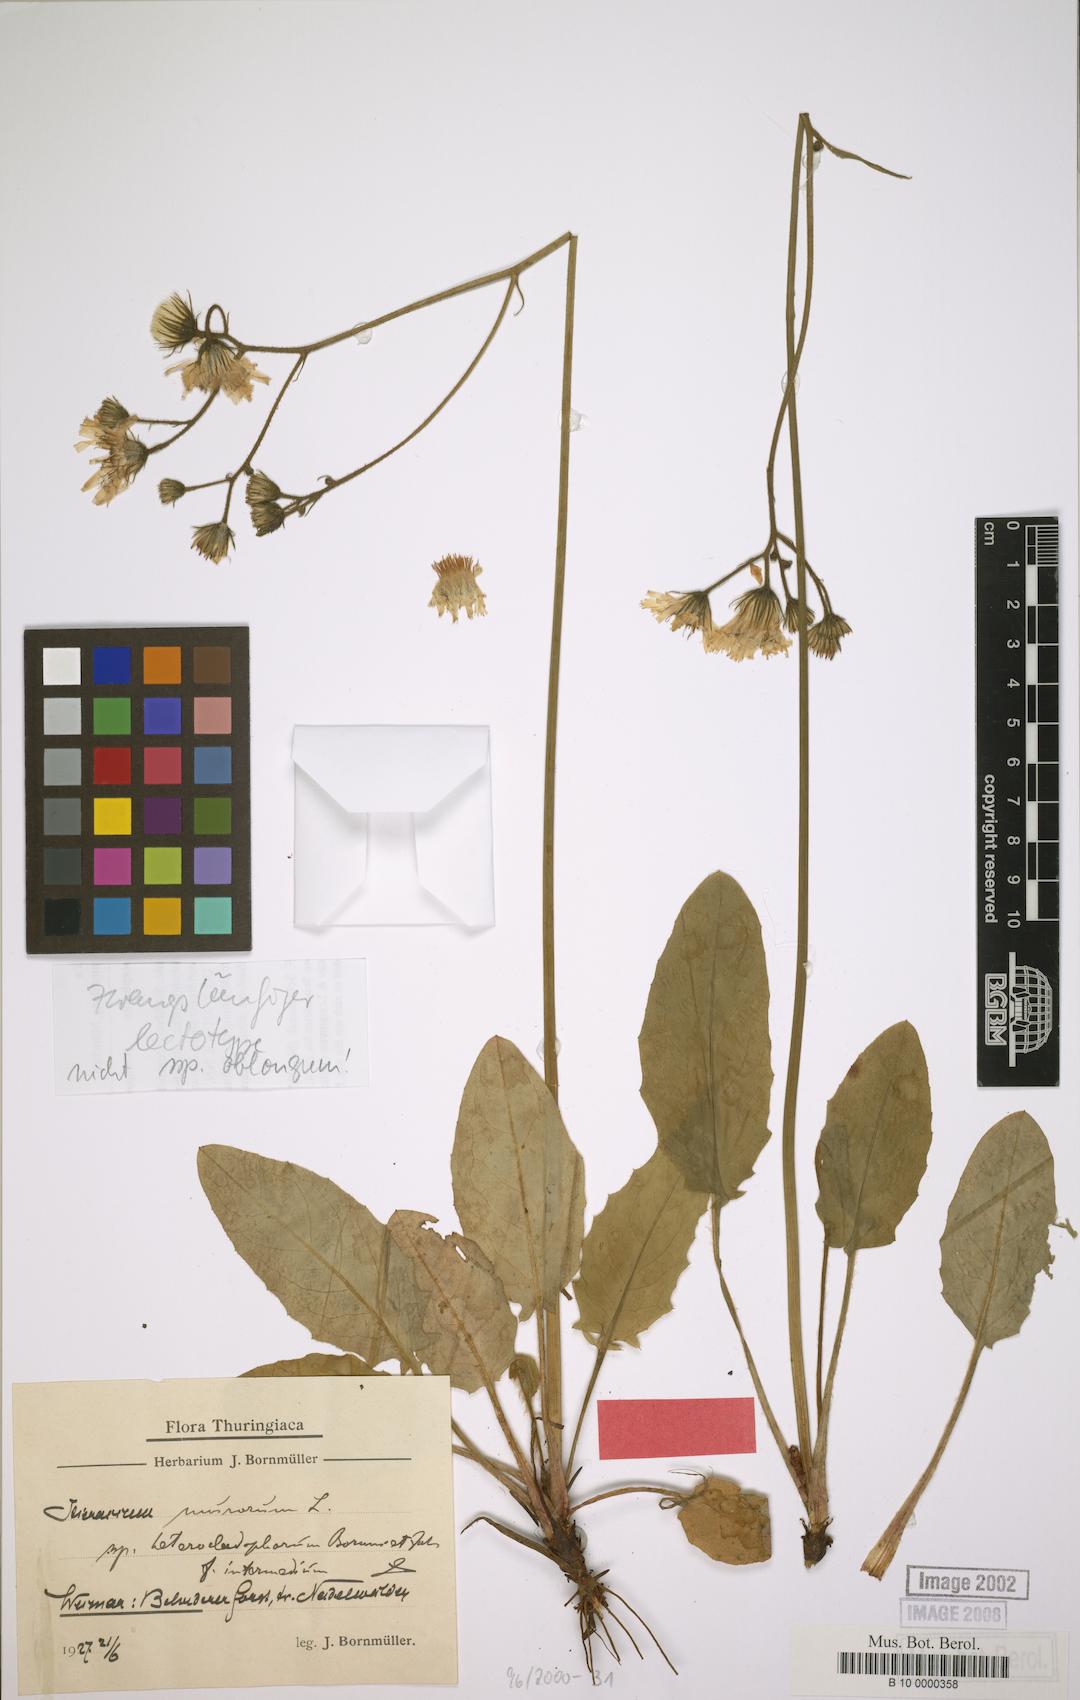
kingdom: Plantae
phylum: Tracheophyta
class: Magnoliopsida
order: Asterales
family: Asteraceae
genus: Hieracium
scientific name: Hieracium murorum
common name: Wall hawkweed
